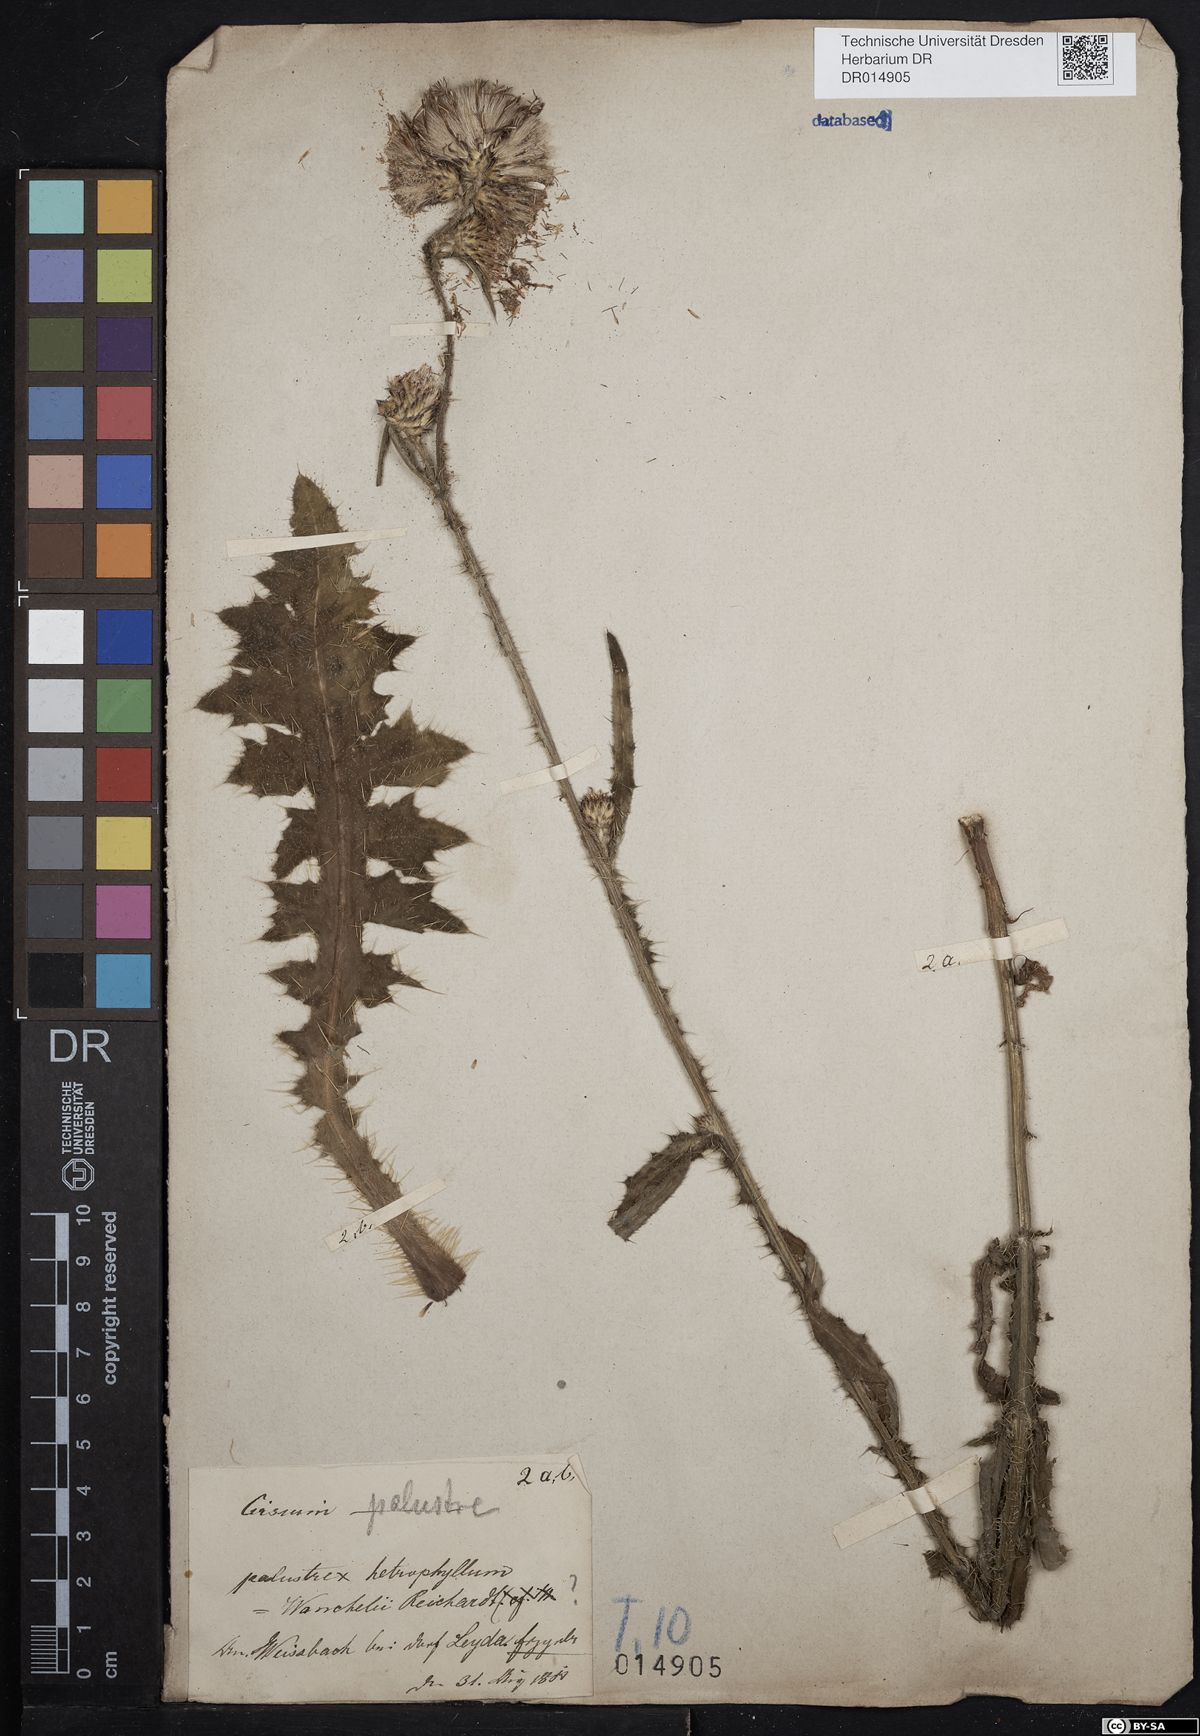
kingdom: Plantae
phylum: Tracheophyta
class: Magnoliopsida
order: Asterales
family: Asteraceae
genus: Cirsium
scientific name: Cirsium palustre
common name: Marsh thistle
